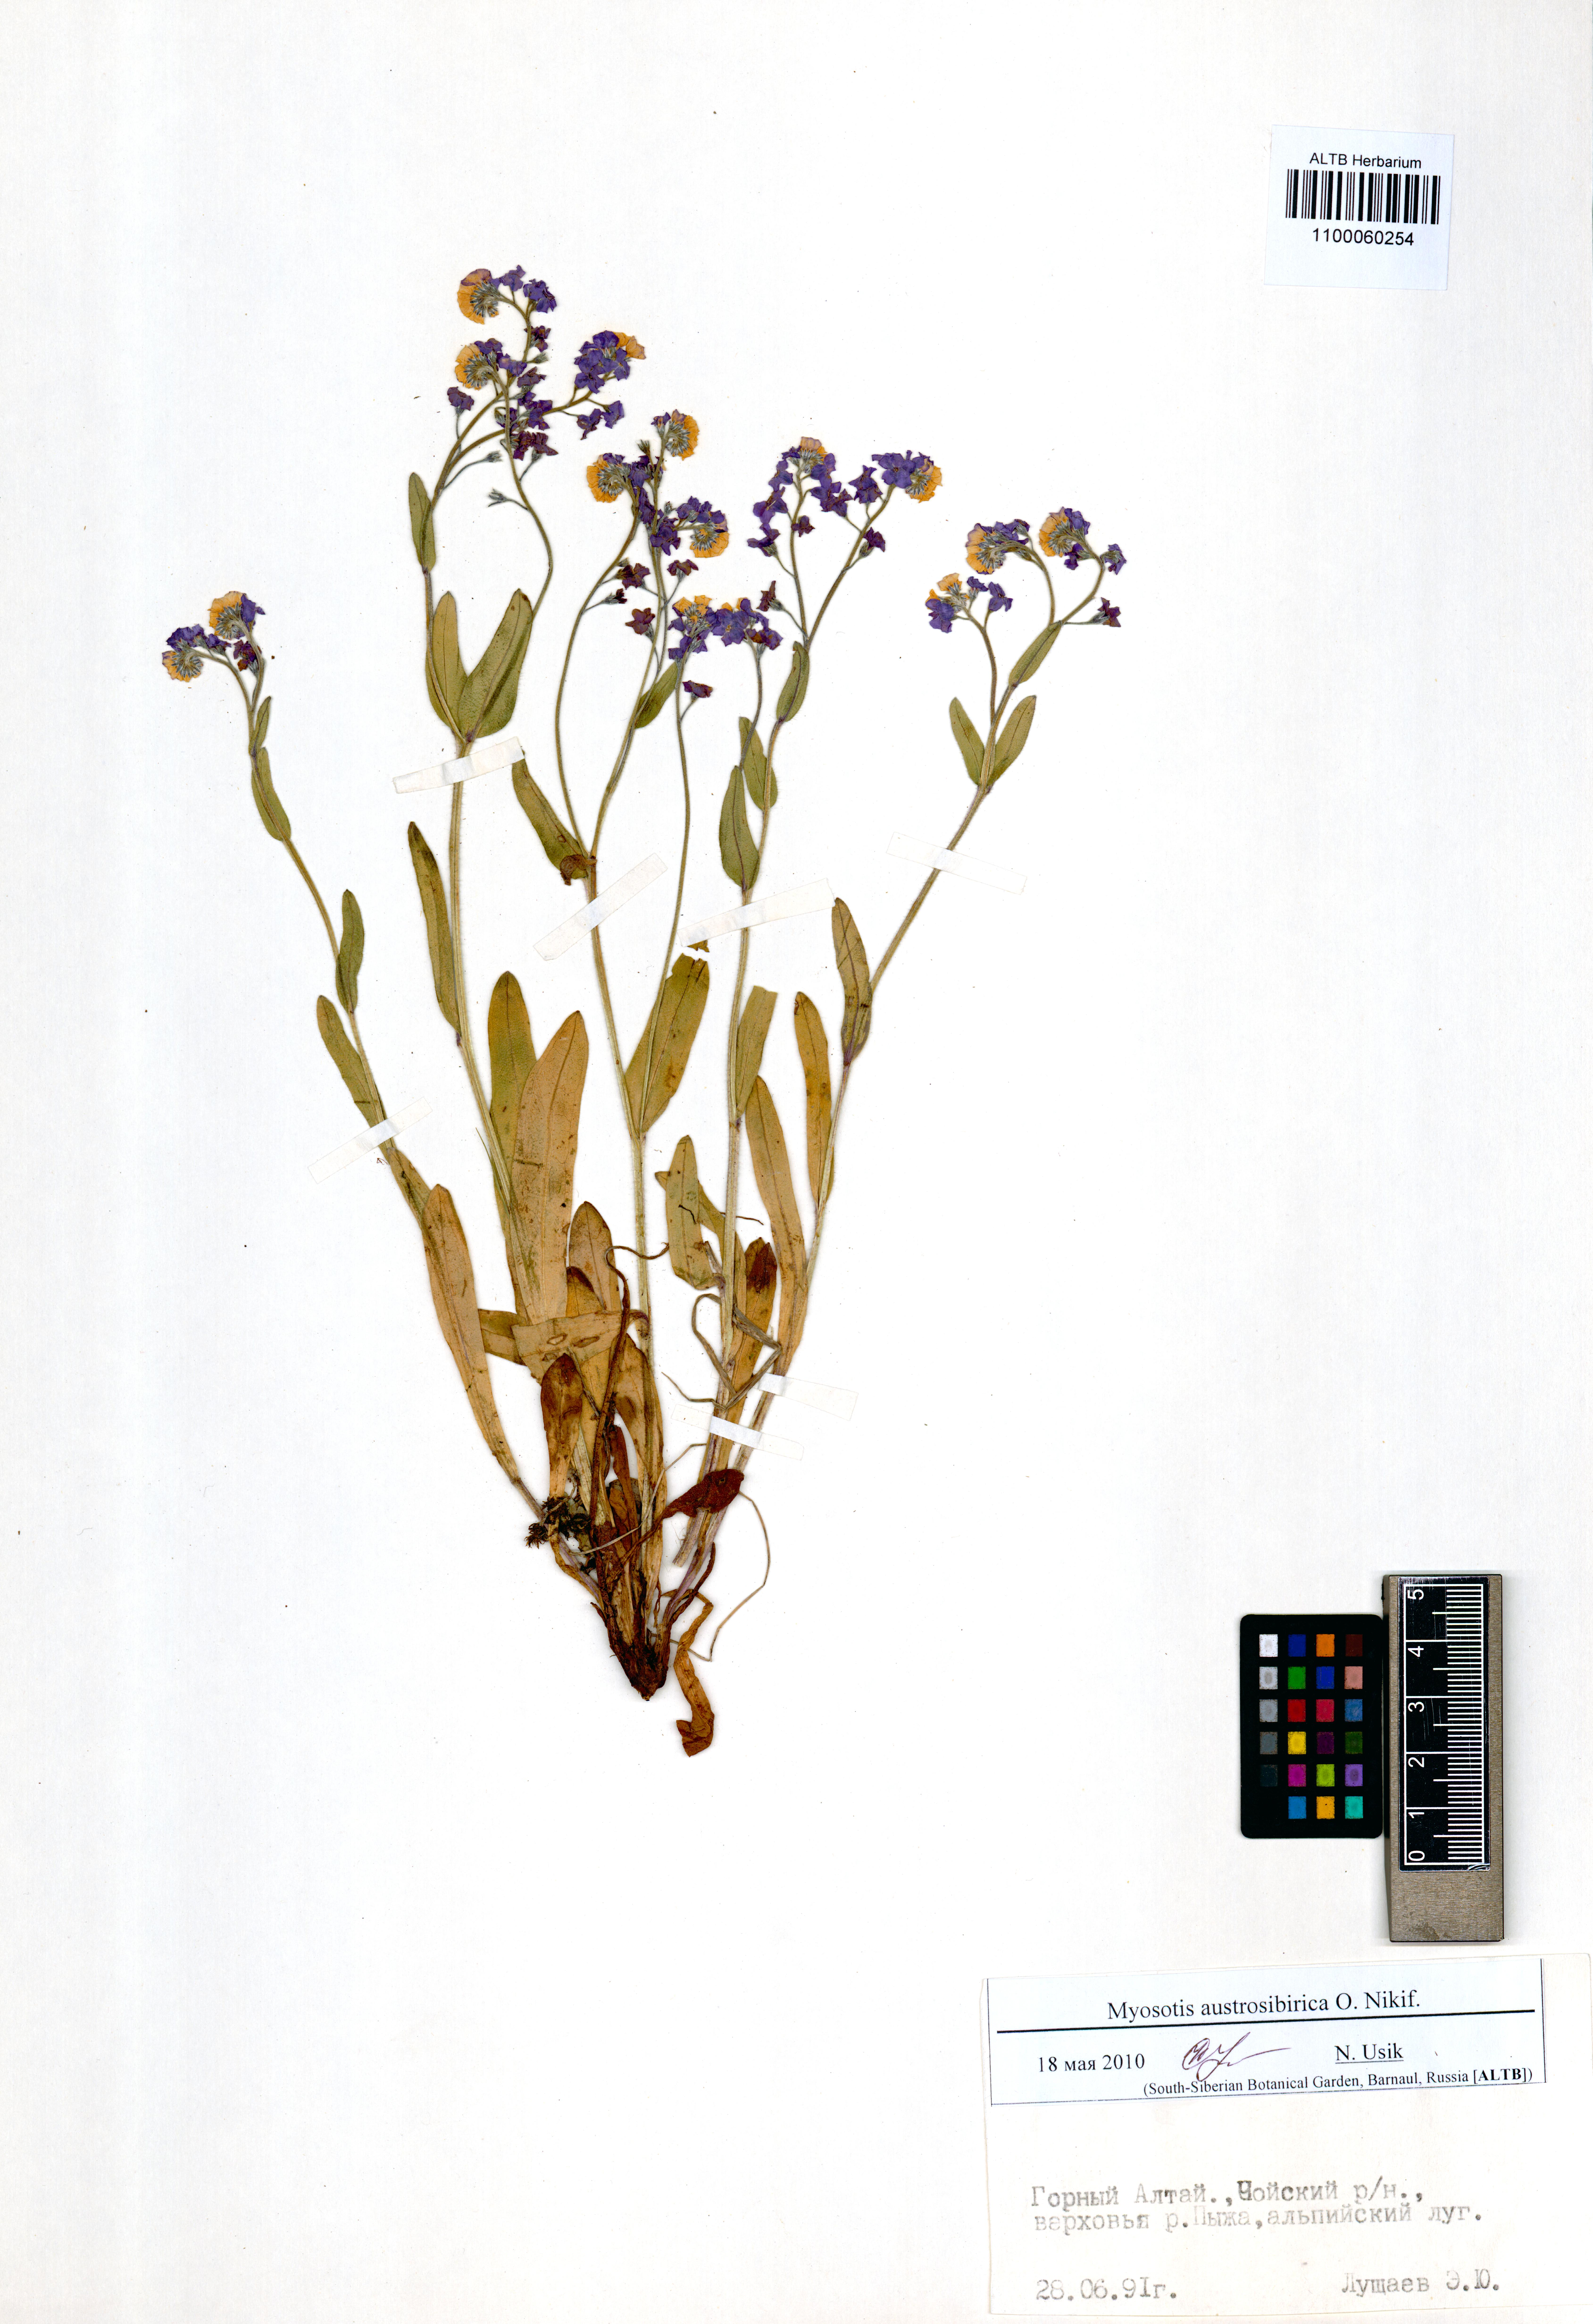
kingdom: Plantae
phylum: Tracheophyta
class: Magnoliopsida
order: Boraginales
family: Boraginaceae
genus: Myosotis
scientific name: Myosotis austrosibirica
